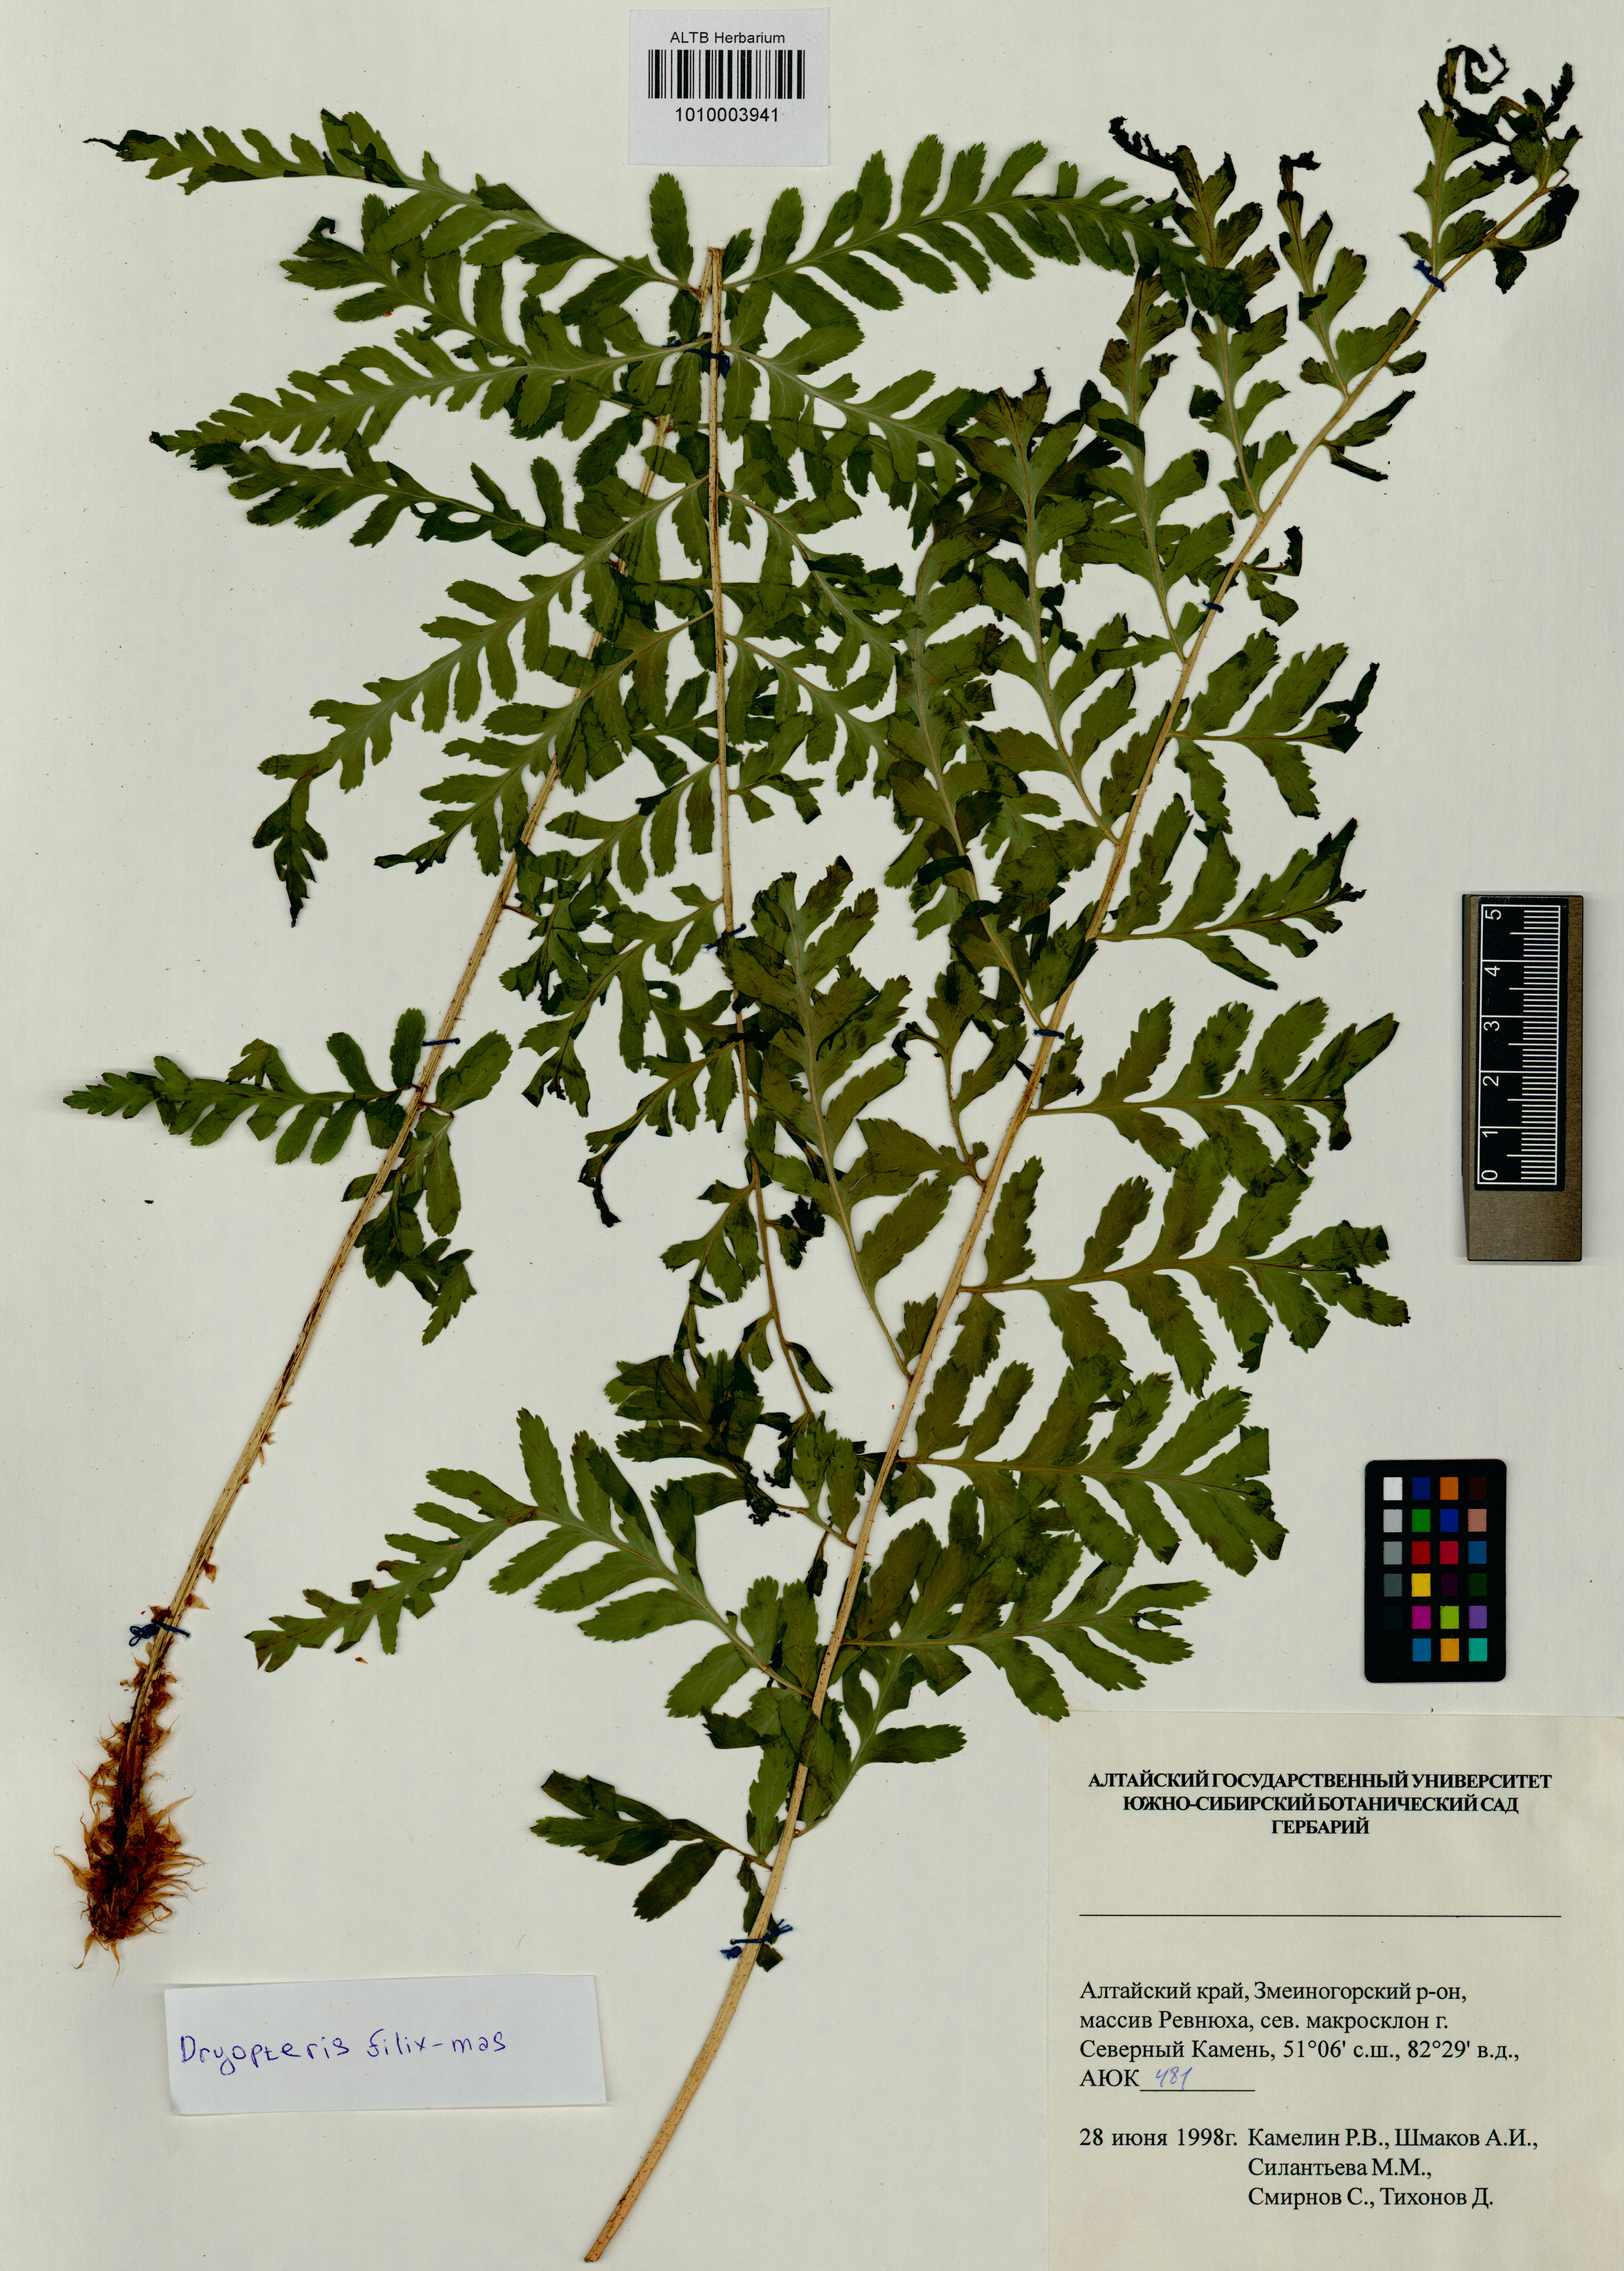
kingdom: Plantae
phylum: Tracheophyta
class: Polypodiopsida
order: Polypodiales
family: Dryopteridaceae
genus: Dryopteris
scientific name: Dryopteris filix-mas
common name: Male fern
